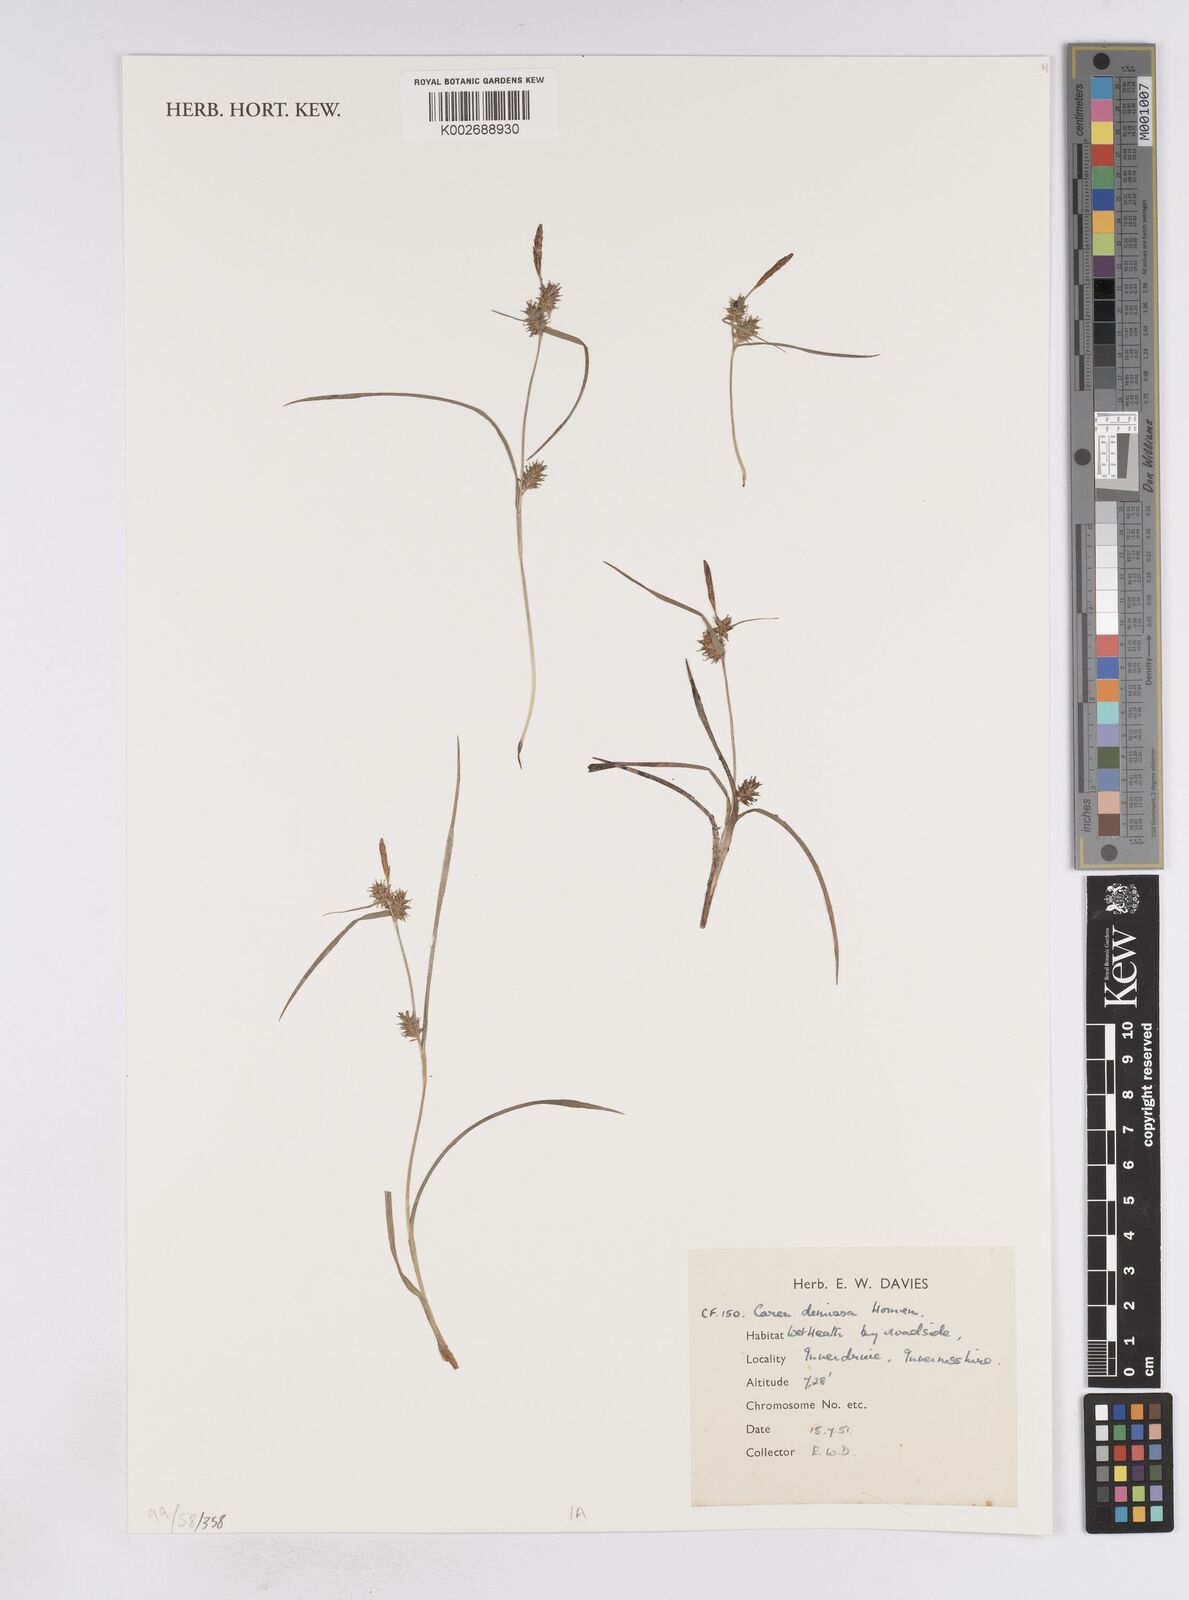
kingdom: Plantae
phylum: Tracheophyta
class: Liliopsida
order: Poales
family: Cyperaceae
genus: Carex
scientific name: Carex demissa
